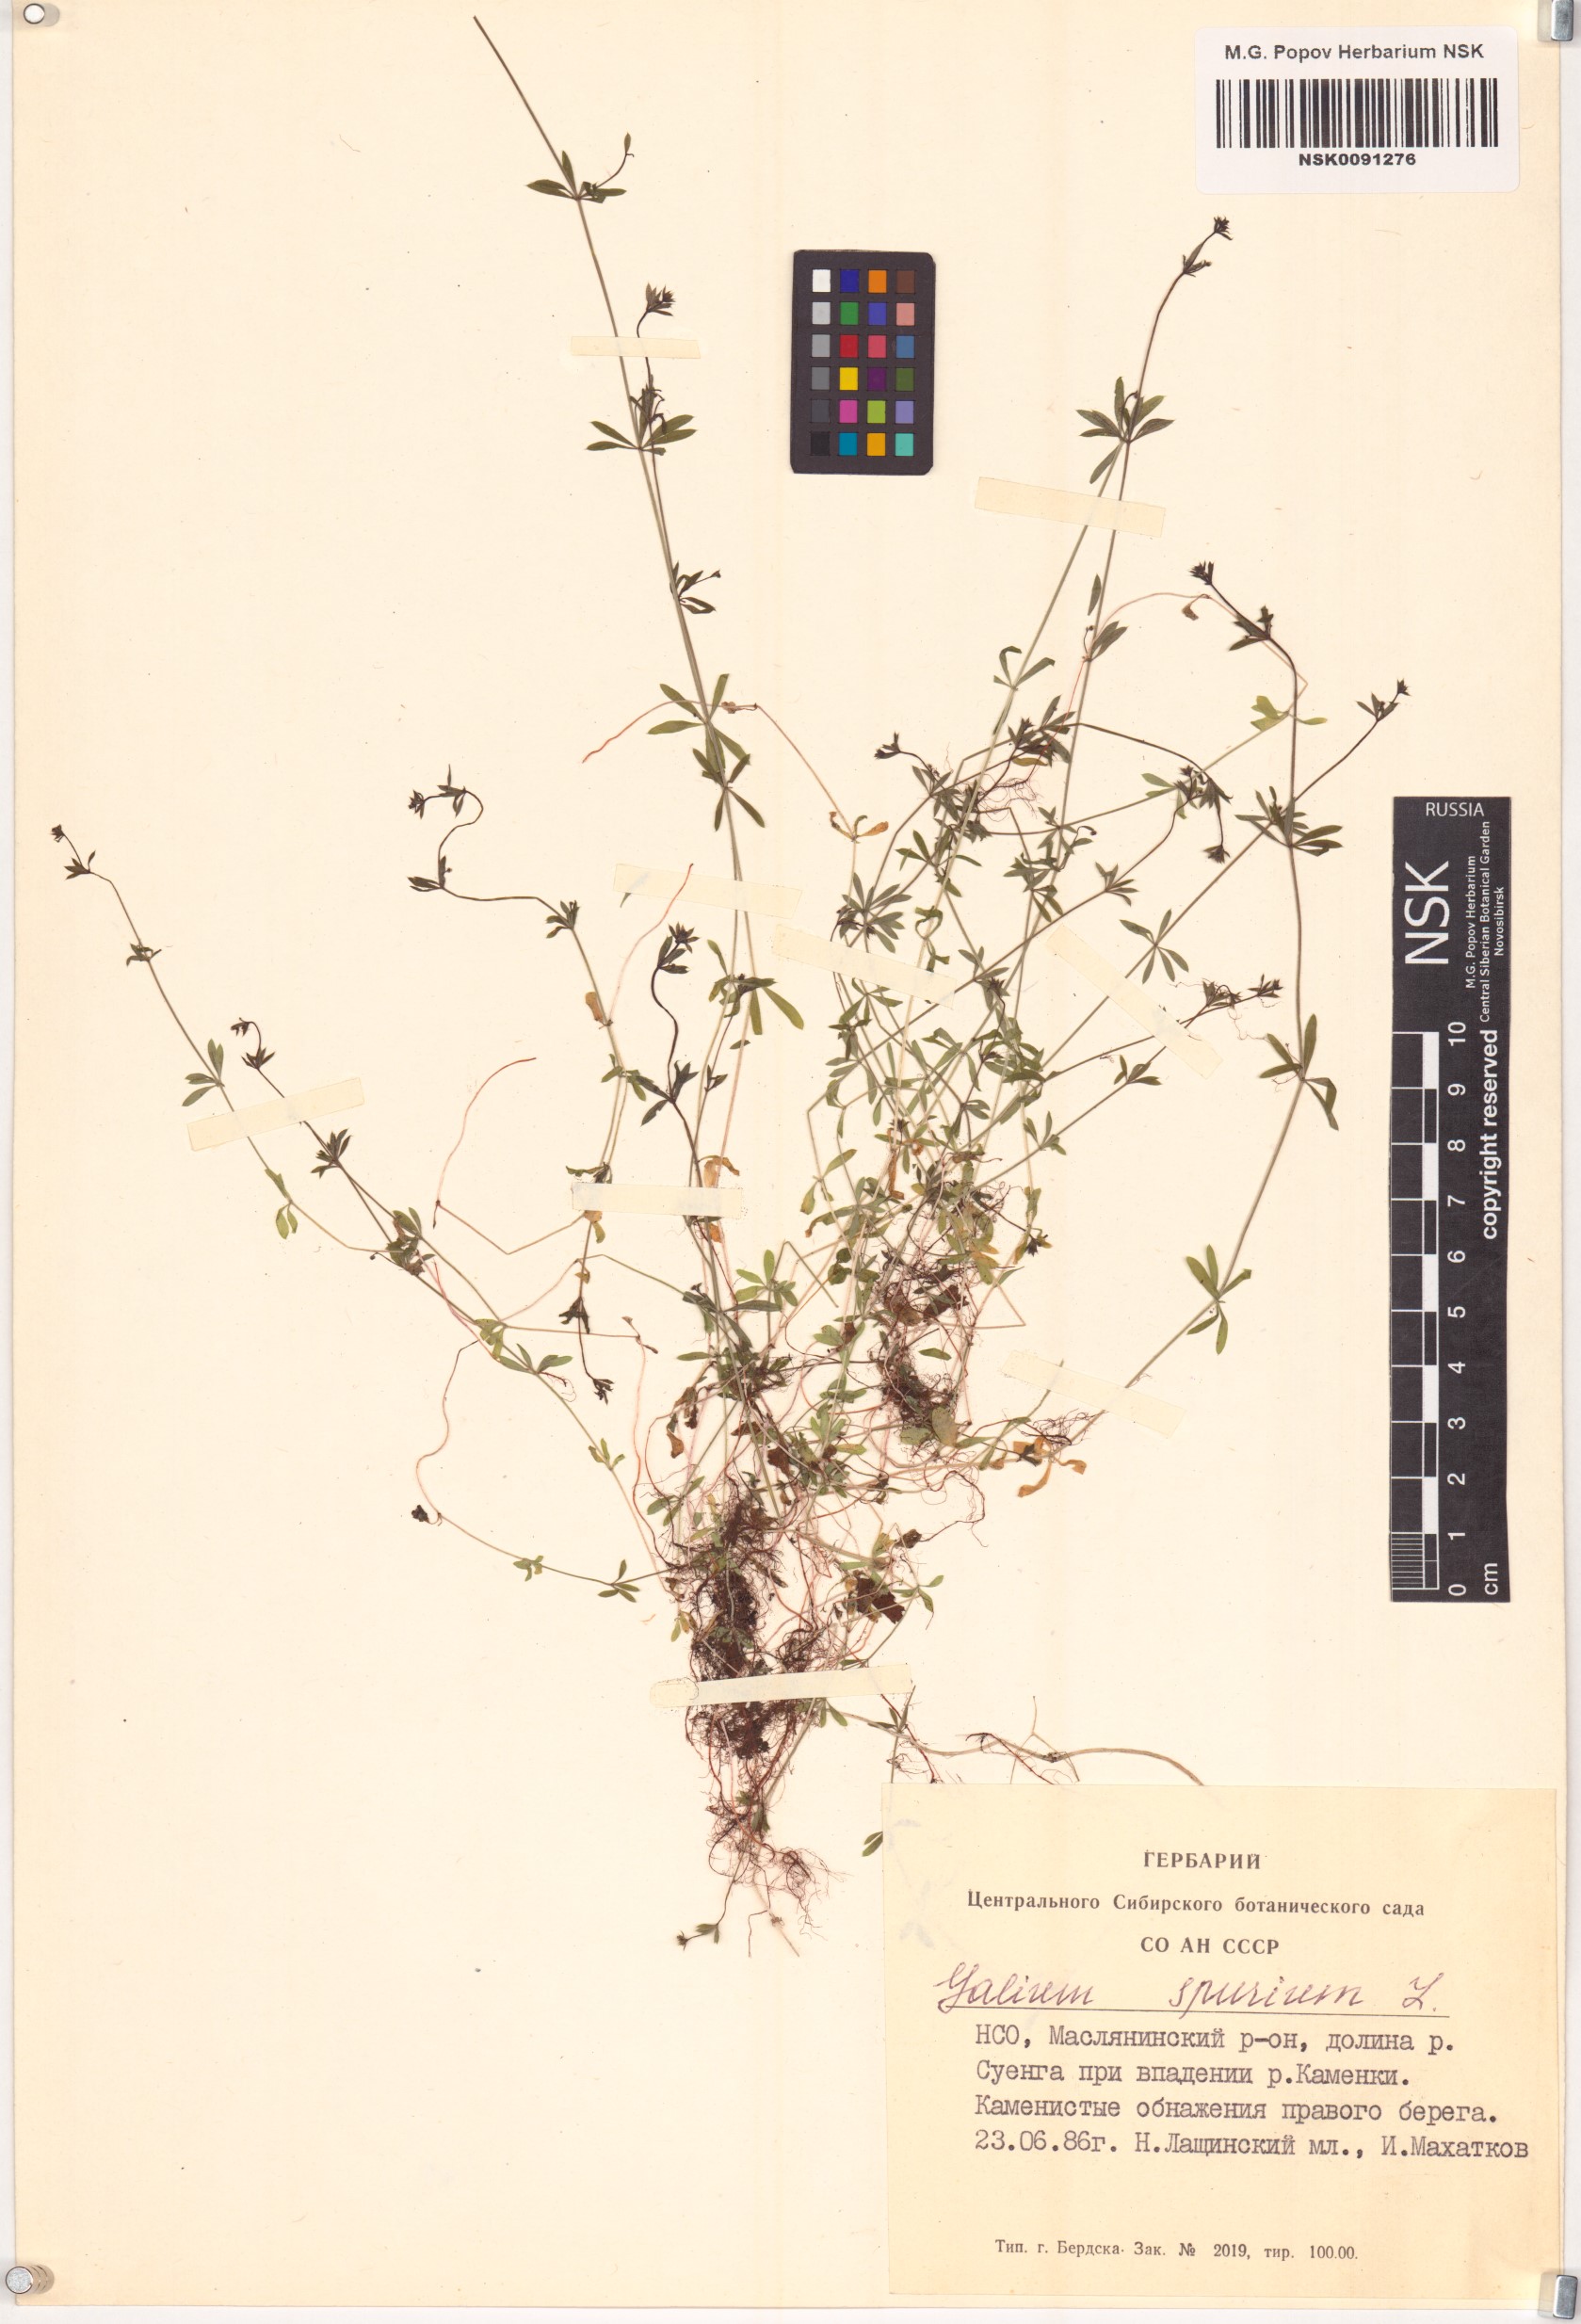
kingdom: Plantae
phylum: Tracheophyta
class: Magnoliopsida
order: Gentianales
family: Rubiaceae
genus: Galium
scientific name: Galium spurium
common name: False cleavers
